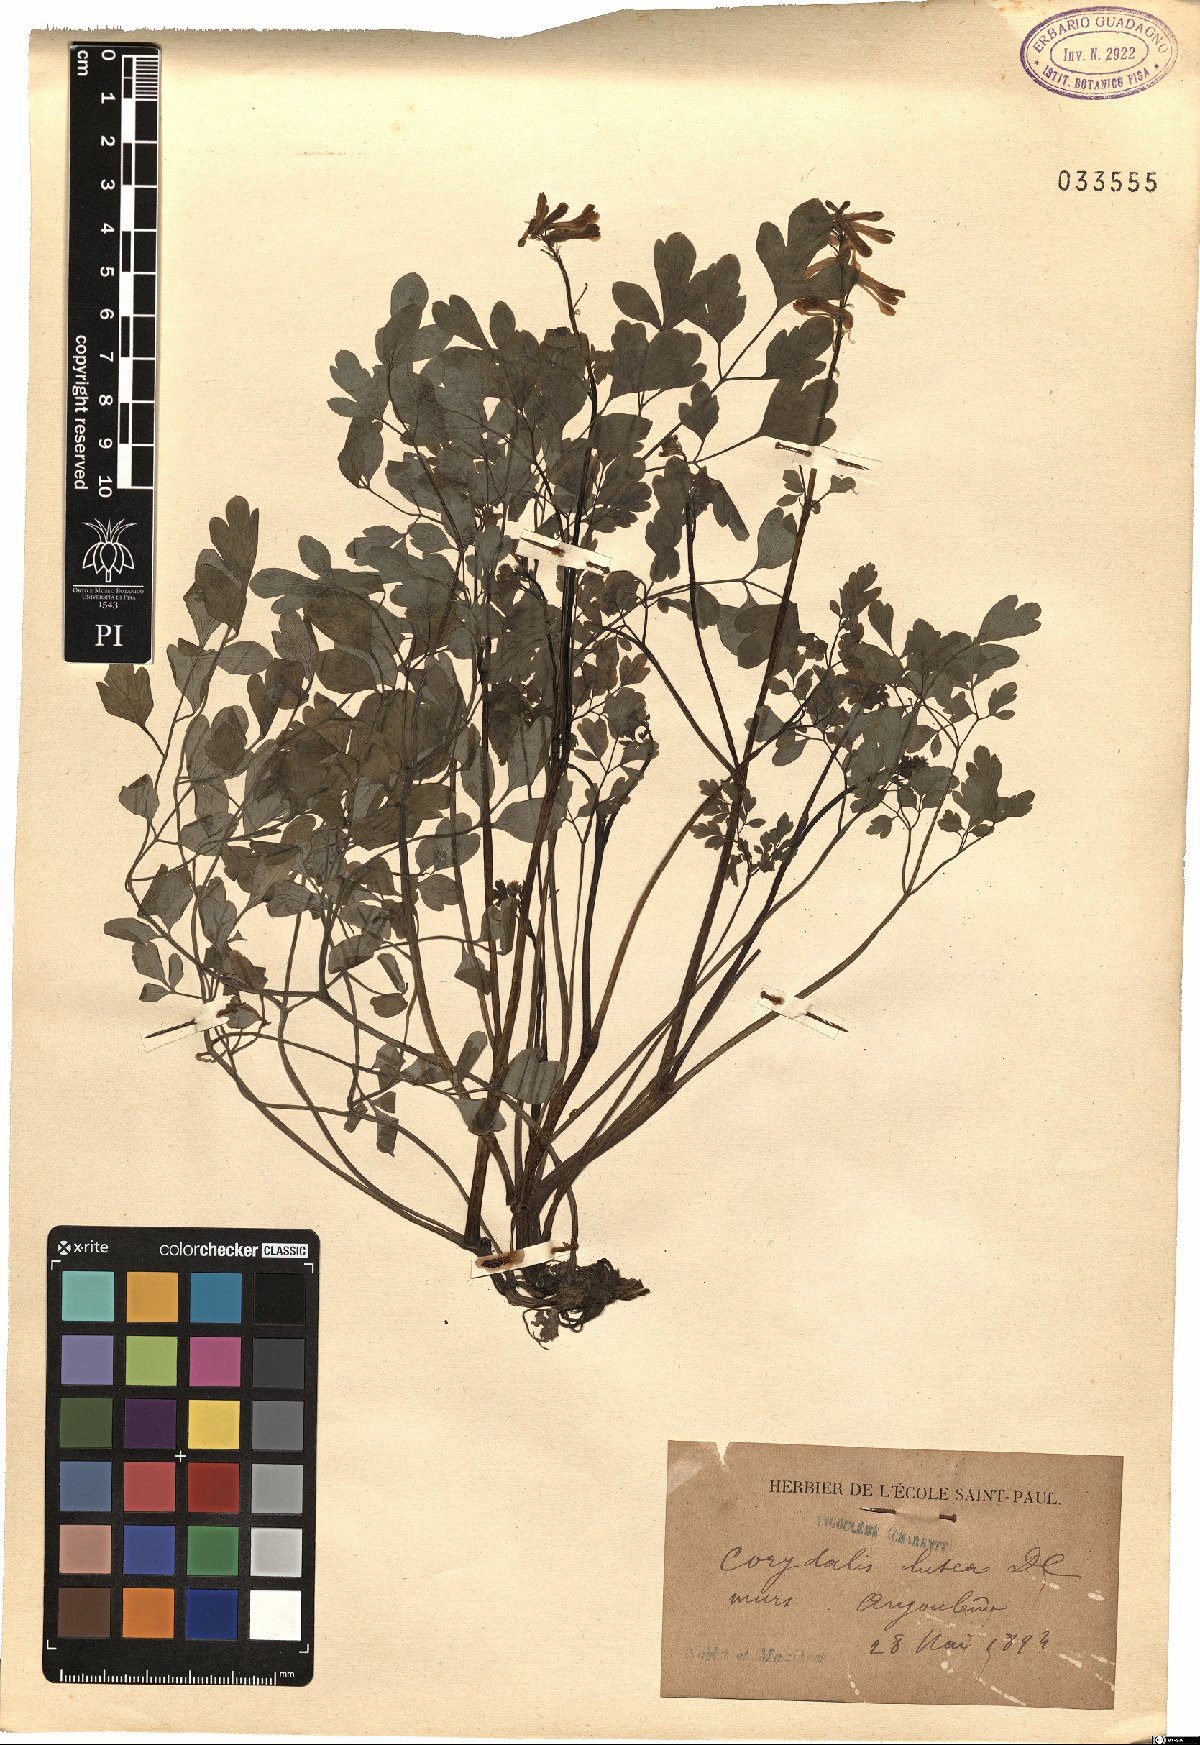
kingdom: Plantae
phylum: Tracheophyta
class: Magnoliopsida
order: Ranunculales
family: Papaveraceae
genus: Pseudofumaria
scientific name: Pseudofumaria lutea
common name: Yellow corydalis
